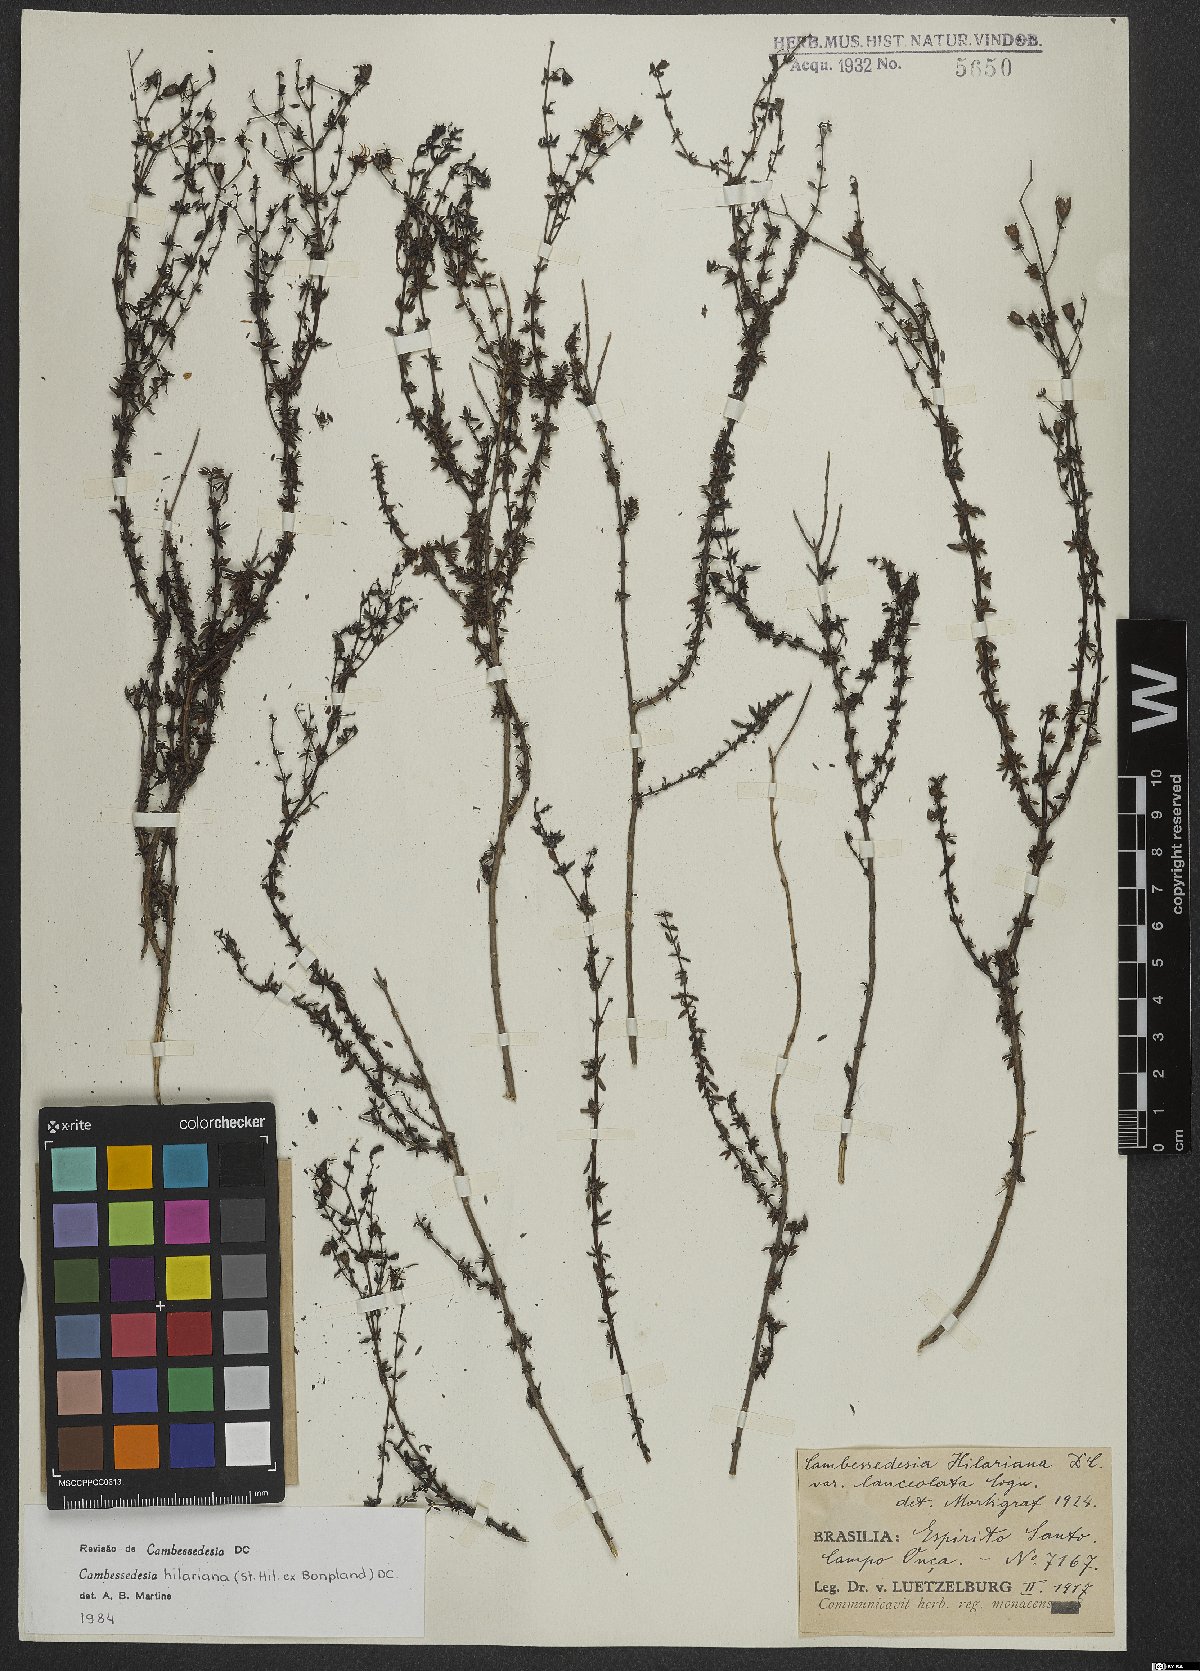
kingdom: Plantae
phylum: Tracheophyta
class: Magnoliopsida
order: Myrtales
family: Melastomataceae
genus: Cambessedesia
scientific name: Cambessedesia hilariana
